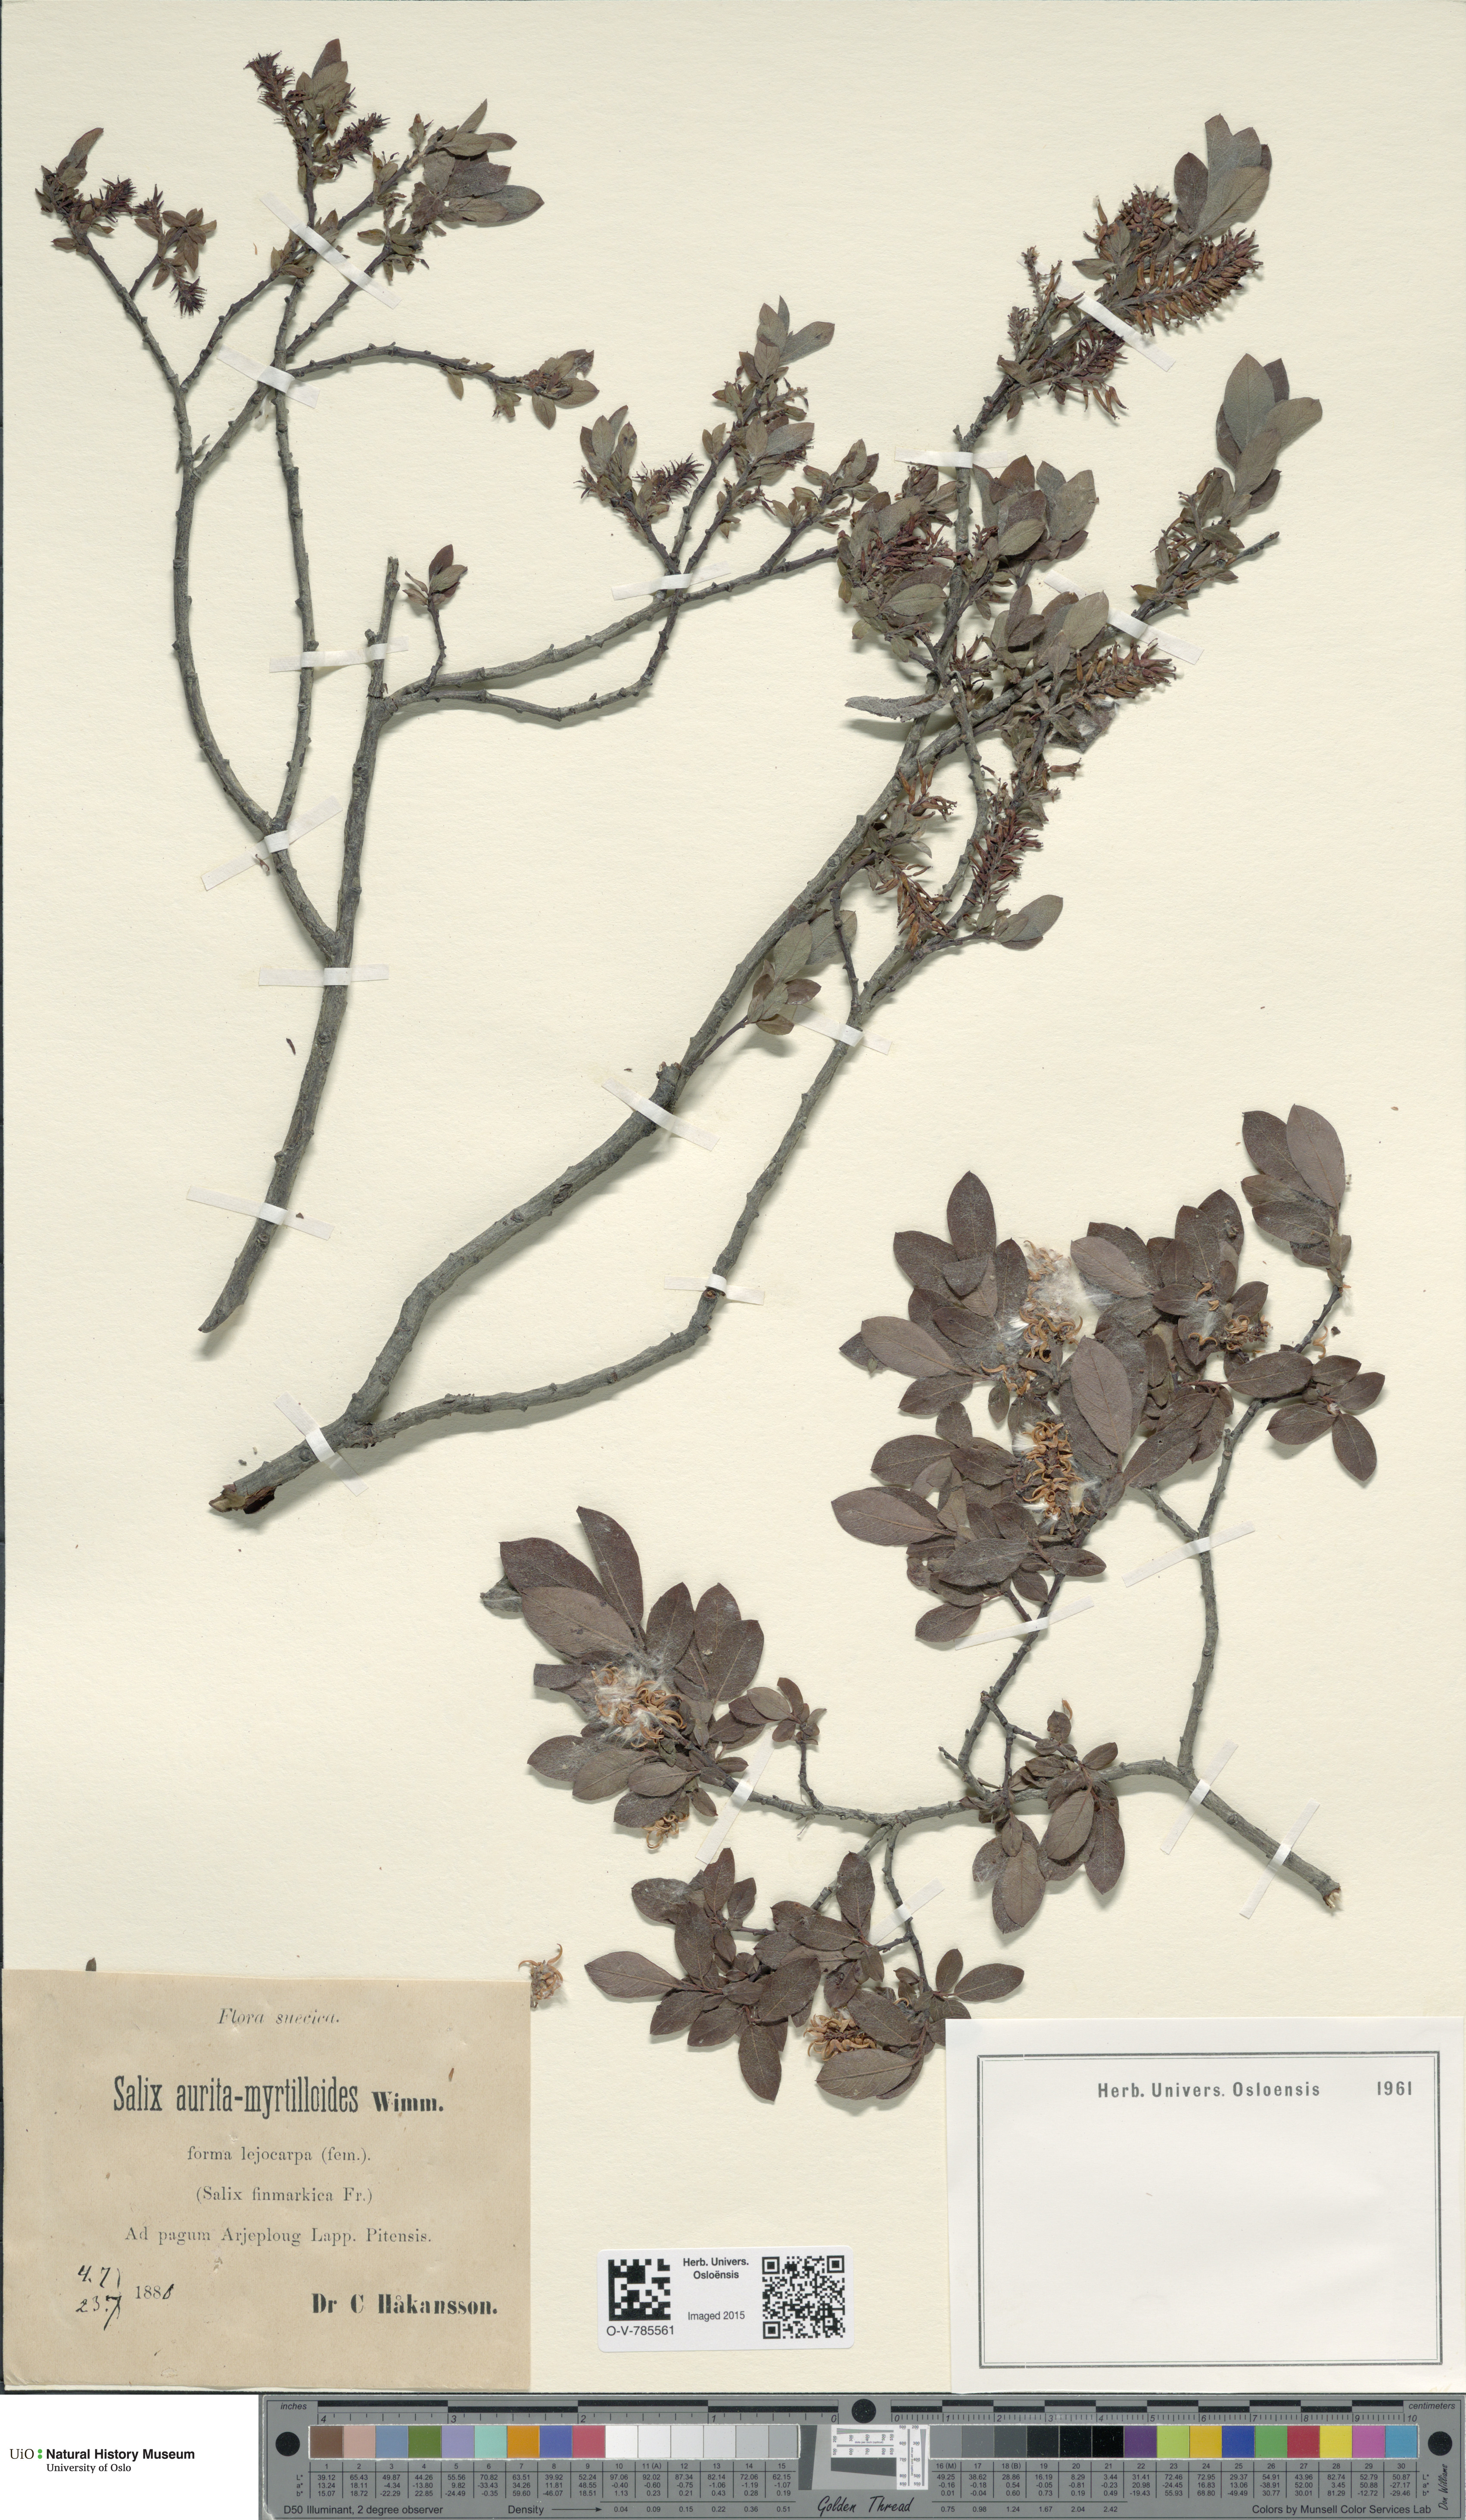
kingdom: Plantae
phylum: Tracheophyta
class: Magnoliopsida
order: Malpighiales
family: Salicaceae
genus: Salix
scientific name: Salix
